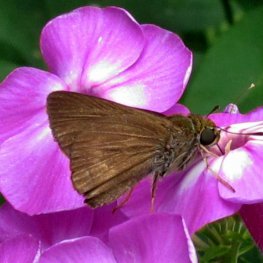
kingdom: Animalia
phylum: Arthropoda
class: Insecta
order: Lepidoptera
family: Hesperiidae
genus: Euphyes
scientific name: Euphyes vestris
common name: Dun Skipper
